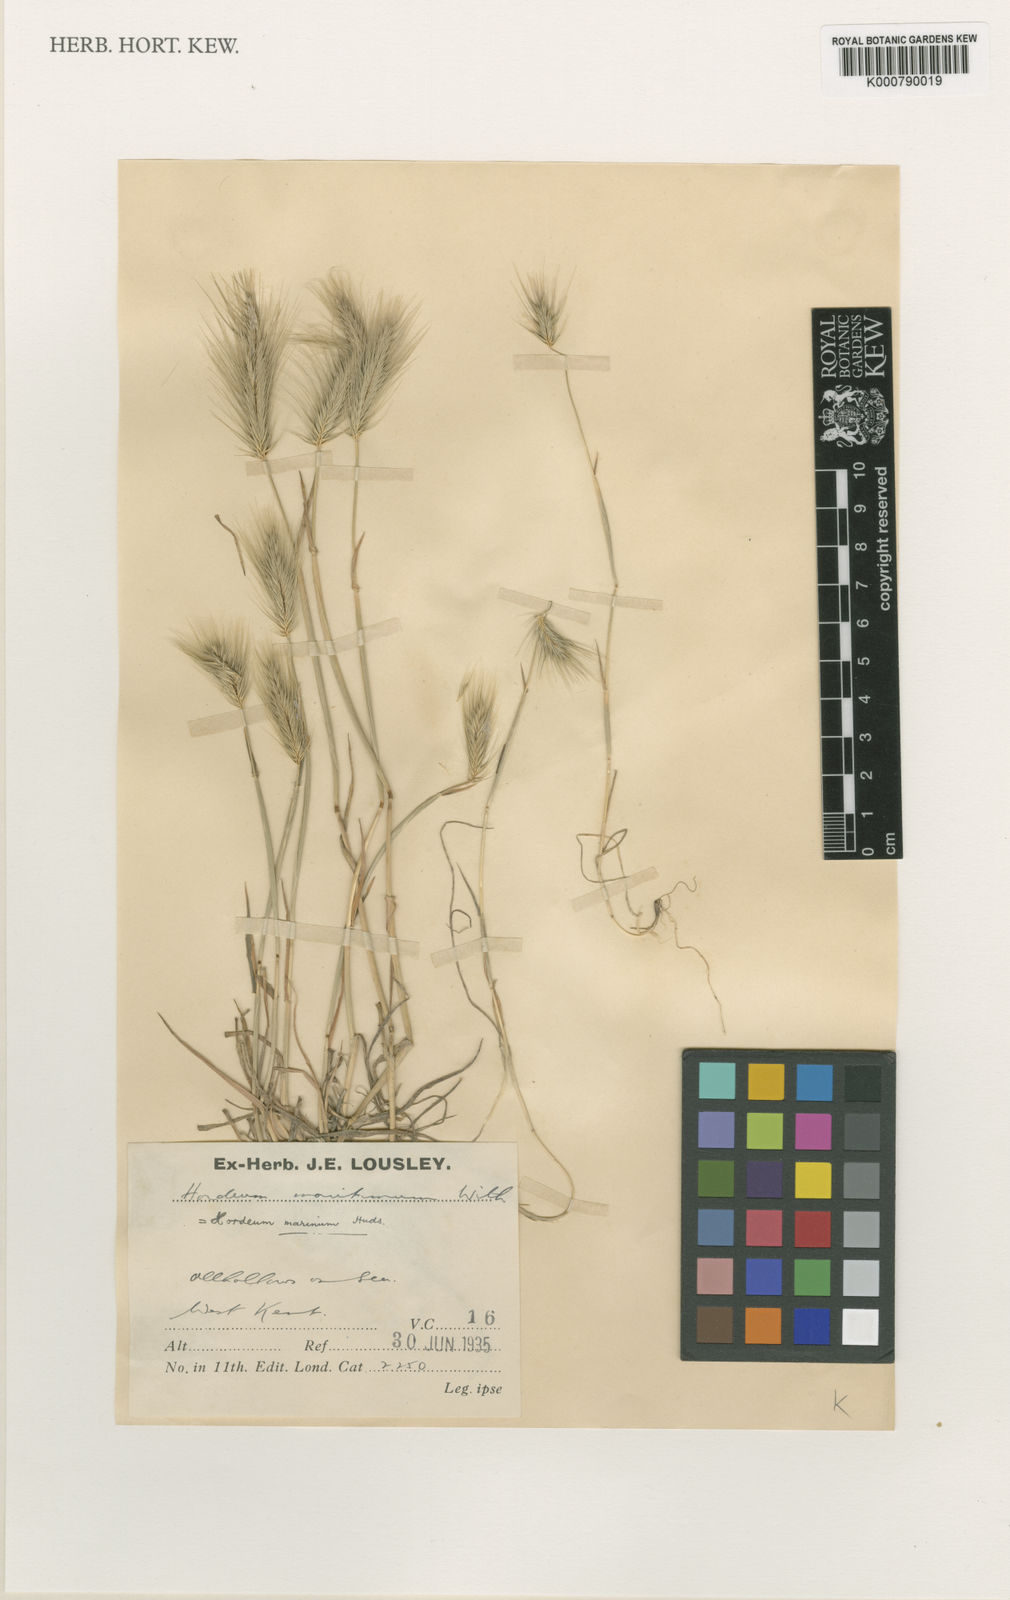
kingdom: Plantae
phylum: Tracheophyta
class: Liliopsida
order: Poales
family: Poaceae
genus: Hordeum
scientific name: Hordeum marinum
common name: Sea barley
